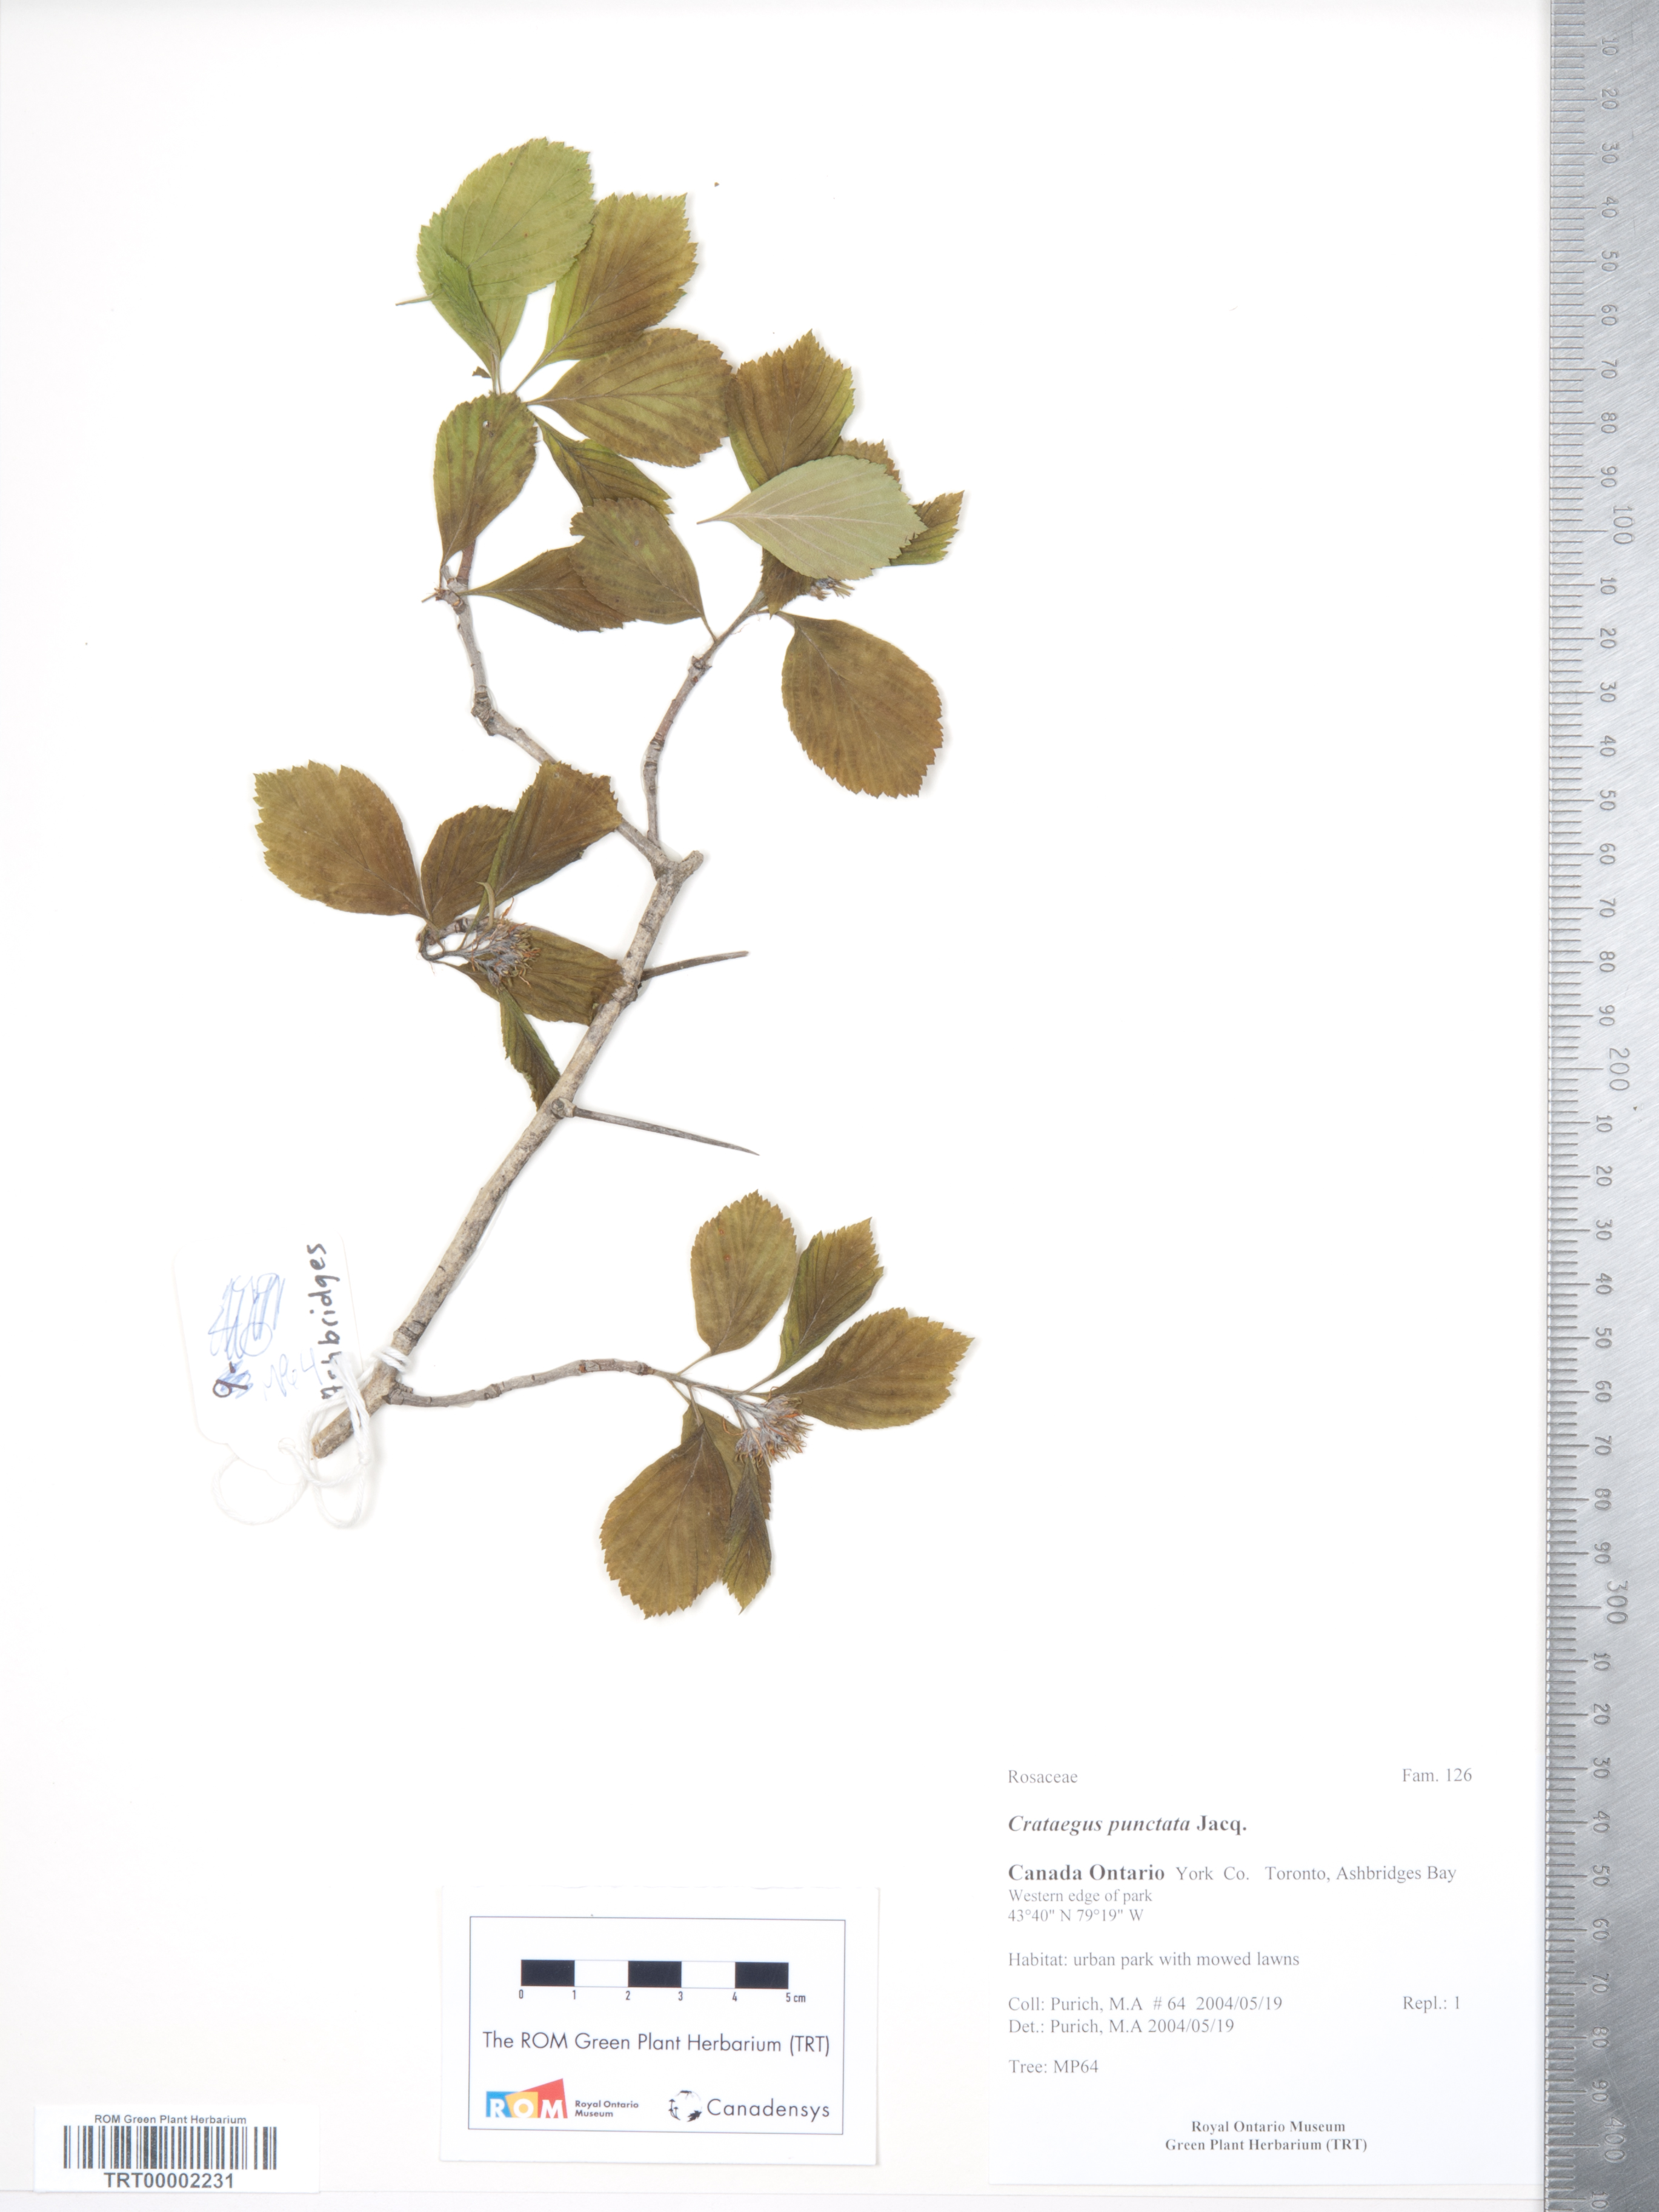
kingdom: Plantae
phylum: Tracheophyta
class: Magnoliopsida
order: Rosales
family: Rosaceae
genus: Crataegus
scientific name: Crataegus punctata
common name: Dotted hawthorn
